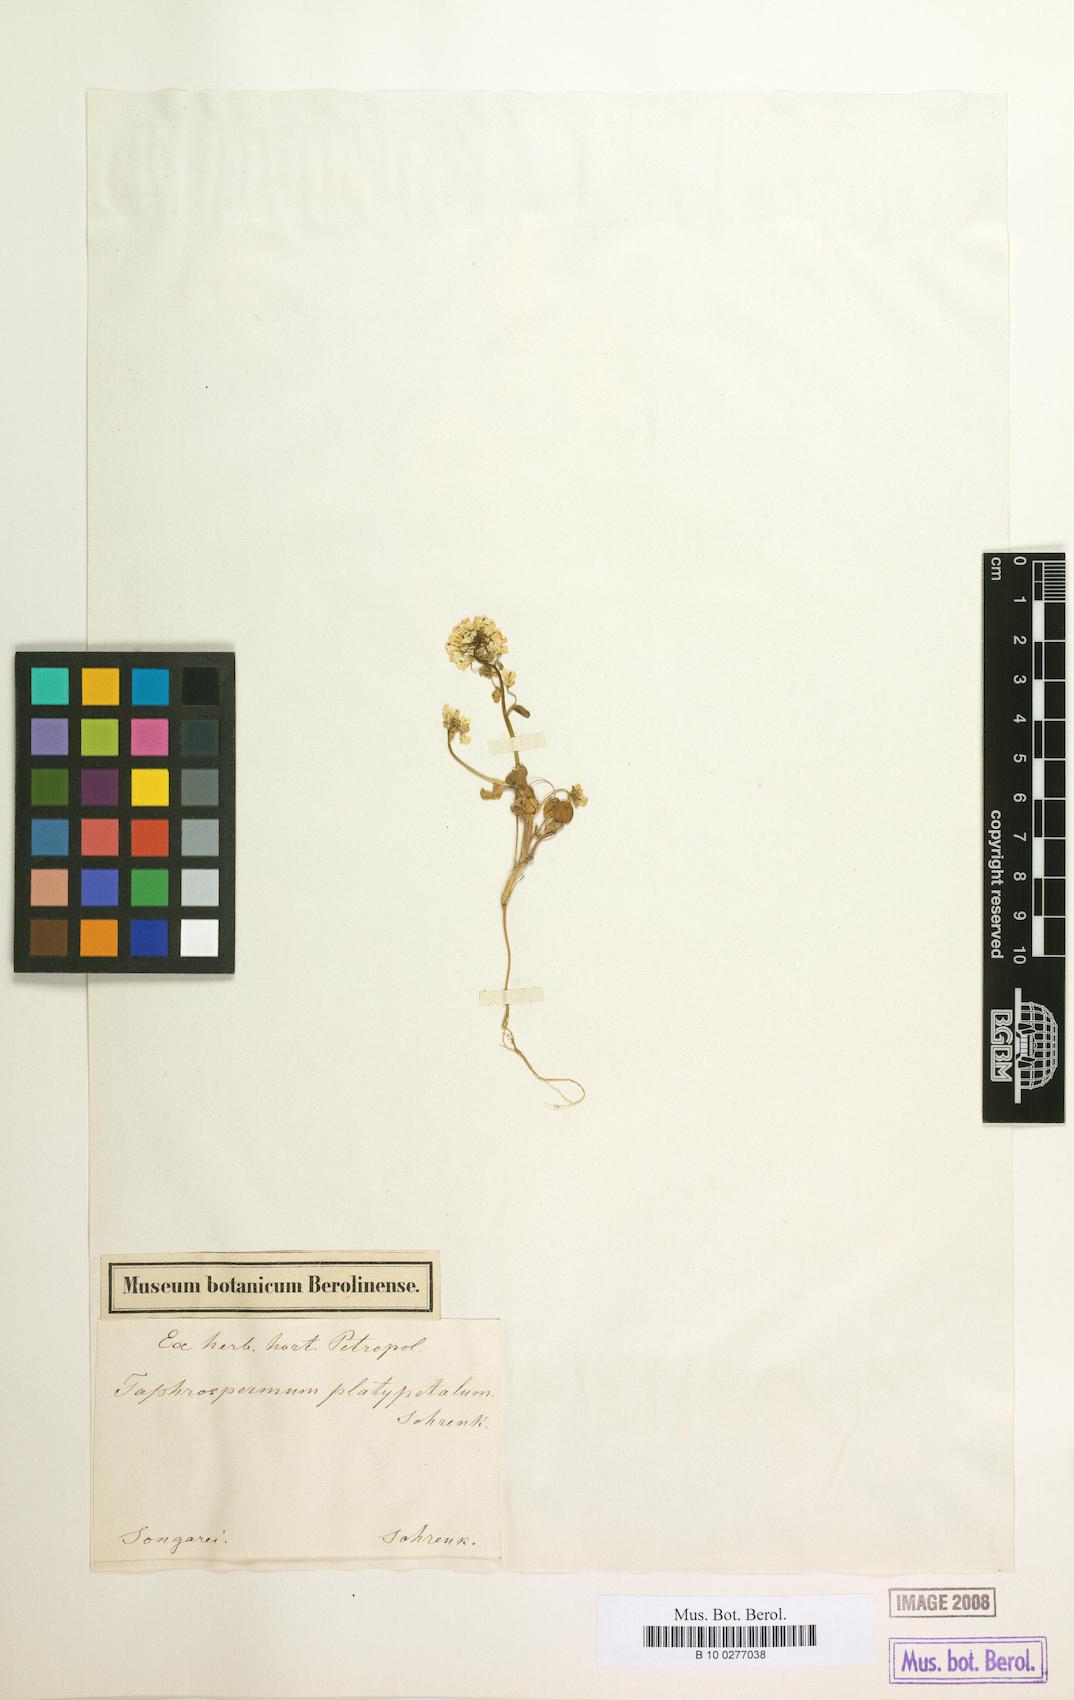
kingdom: Plantae
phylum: Tracheophyta
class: Magnoliopsida
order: Brassicales
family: Brassicaceae
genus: Eutrema
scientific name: Eutrema platypetalum
